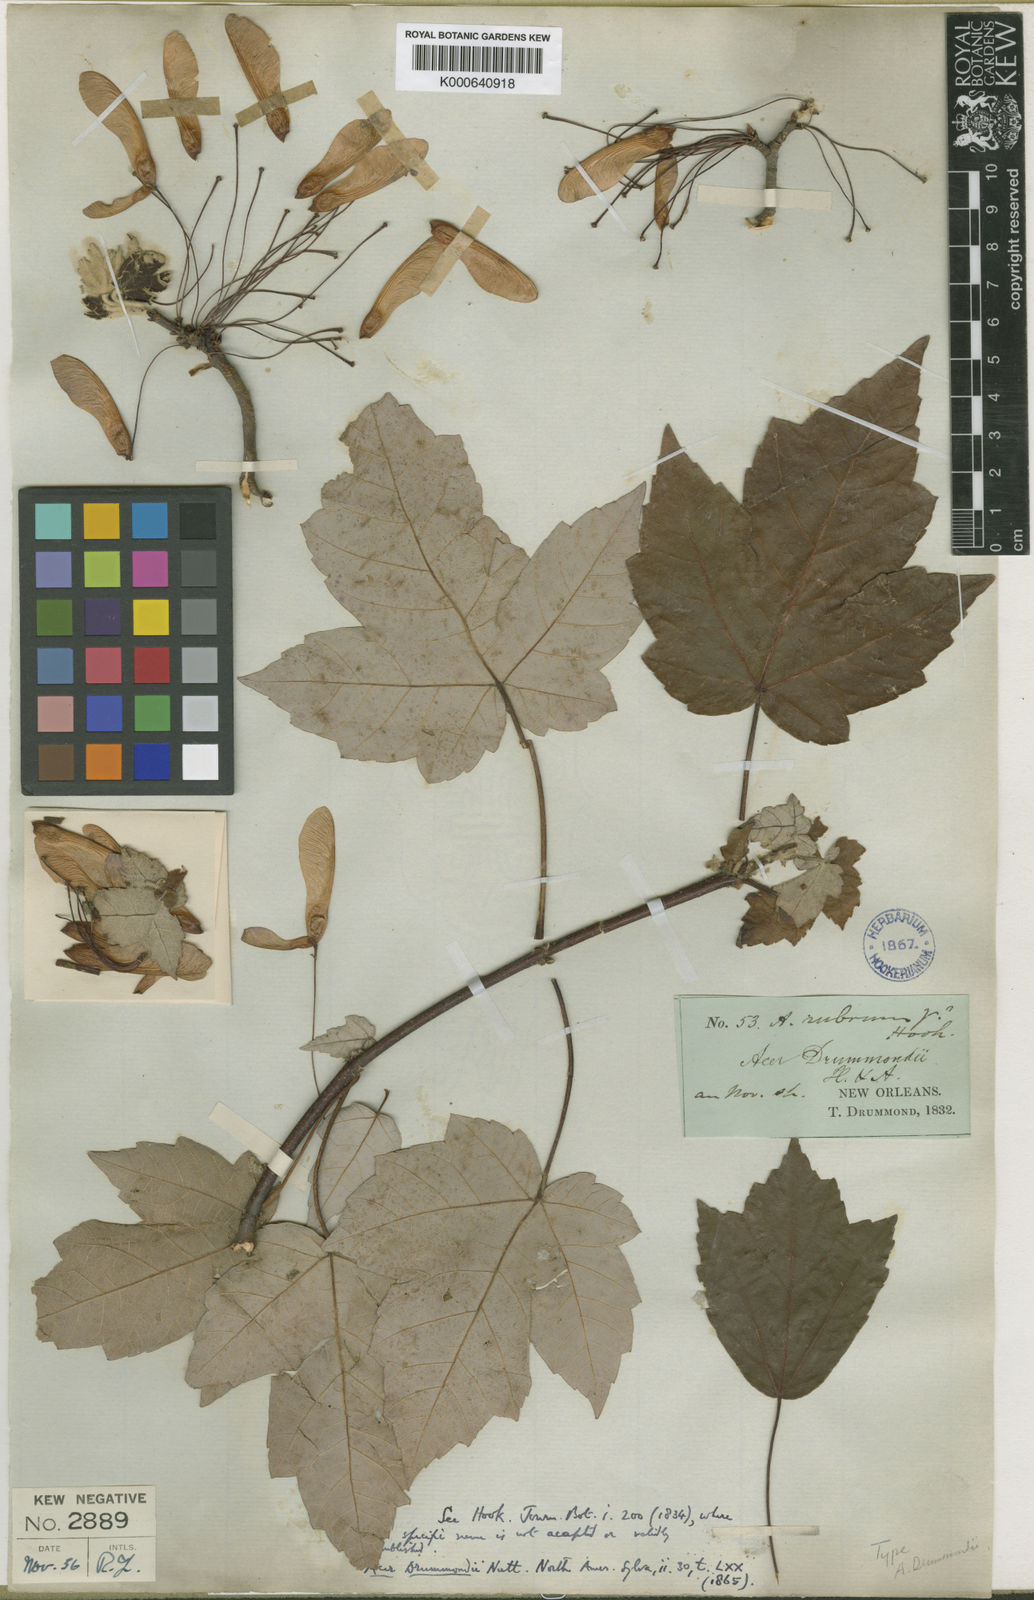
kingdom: Plantae
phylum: Tracheophyta
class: Magnoliopsida
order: Sapindales
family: Sapindaceae
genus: Acer
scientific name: Acer rubrum
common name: Red maple
